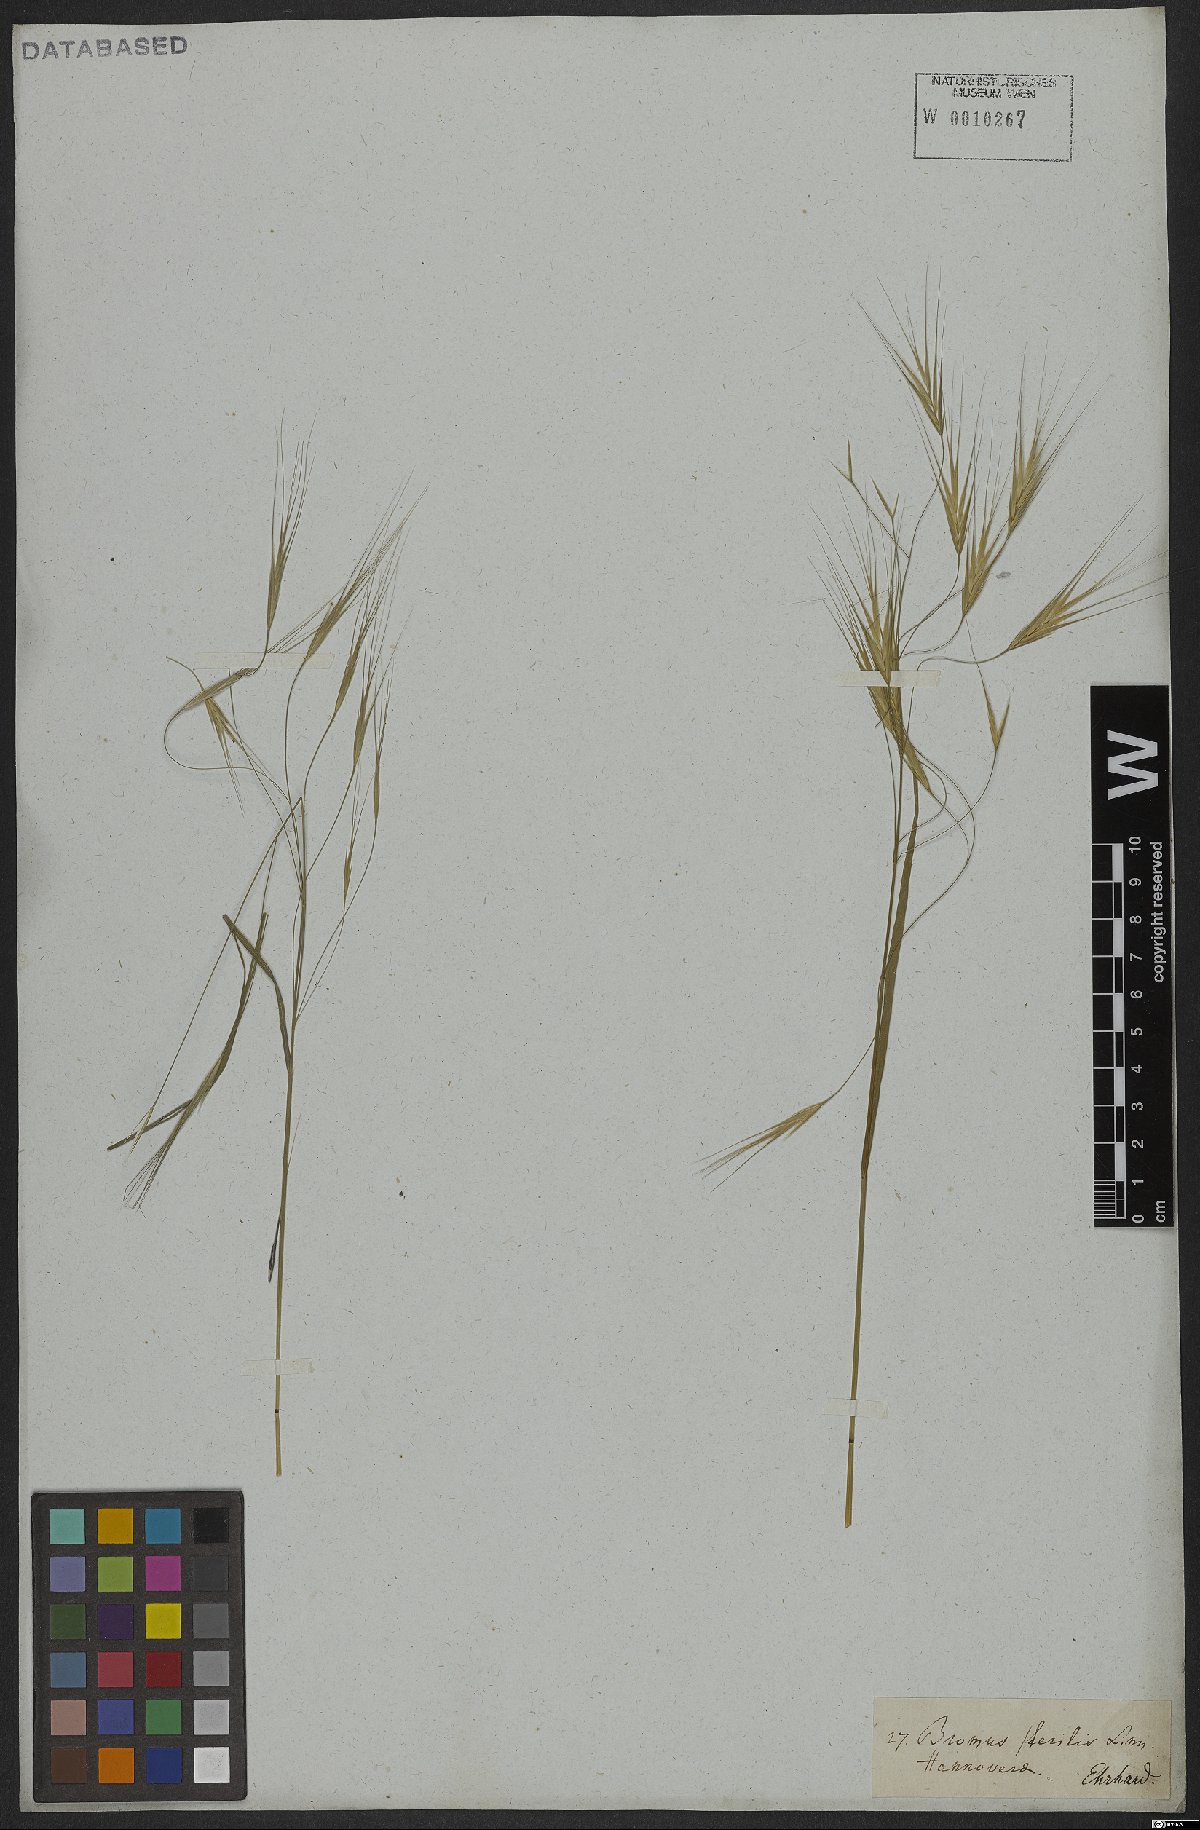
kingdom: Plantae
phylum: Tracheophyta
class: Liliopsida
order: Poales
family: Poaceae
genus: Bromus
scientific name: Bromus sterilis
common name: Poverty brome
